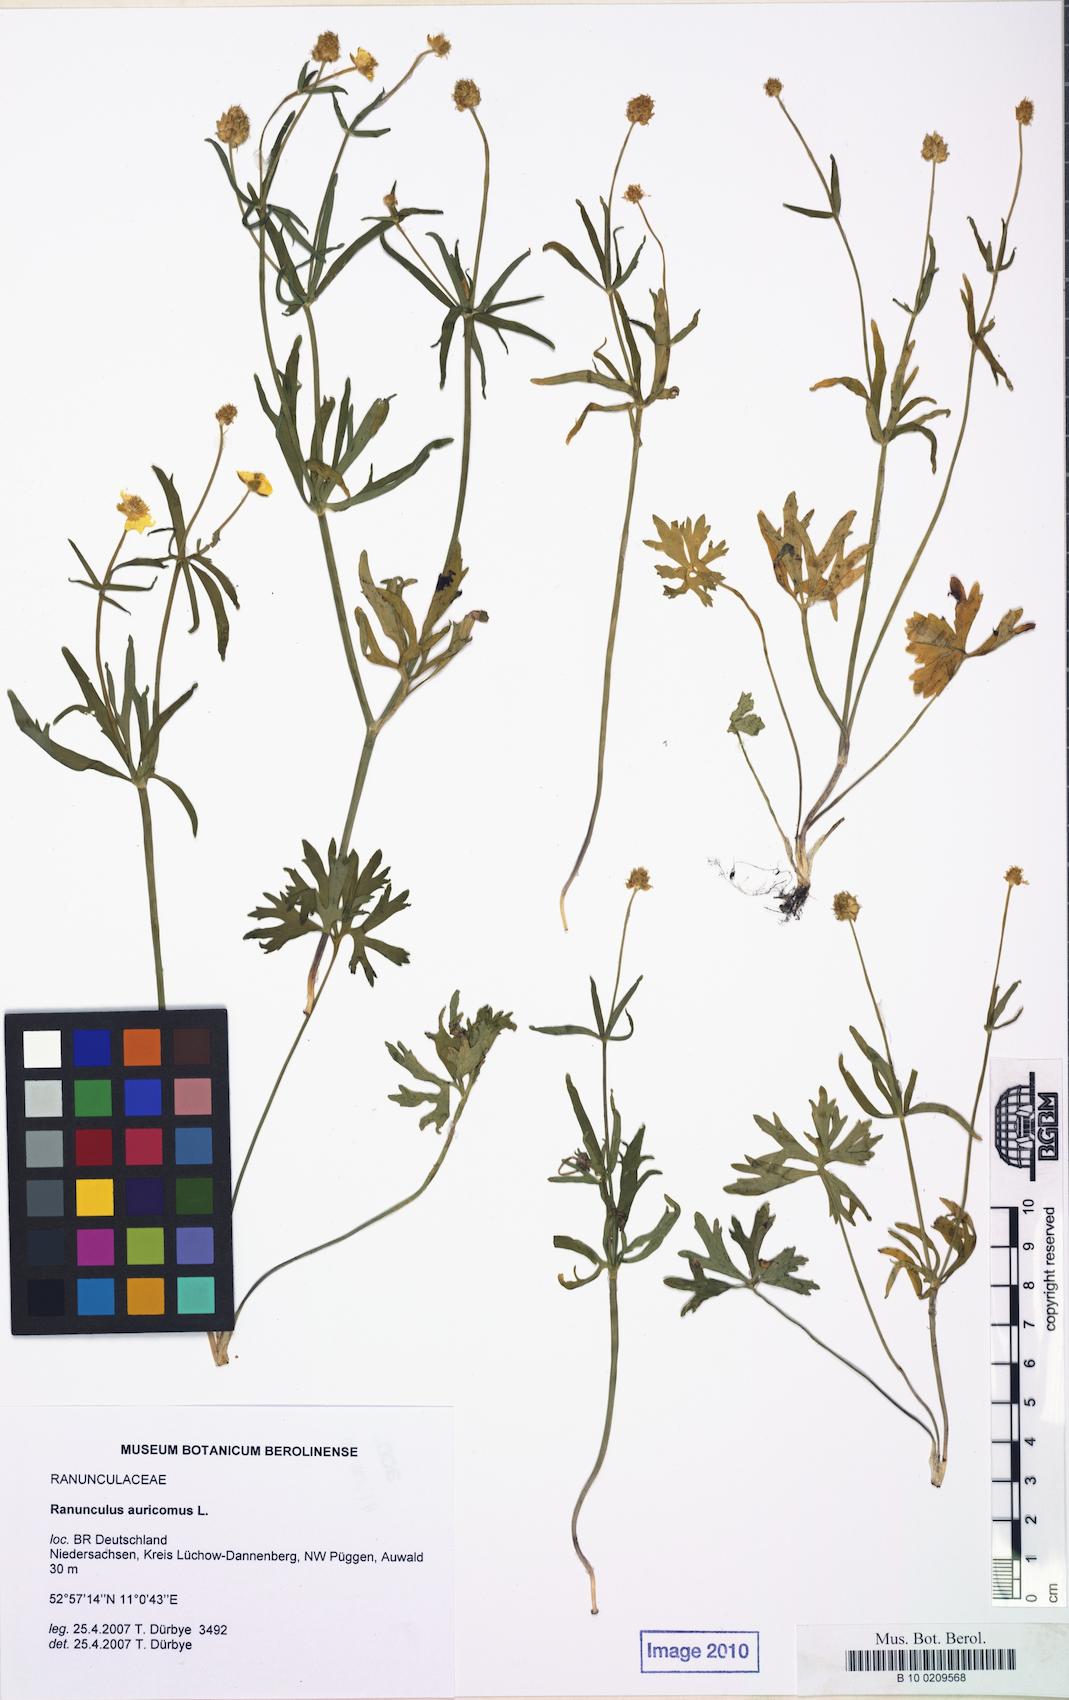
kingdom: Plantae
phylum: Tracheophyta
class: Magnoliopsida
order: Ranunculales
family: Ranunculaceae
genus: Ranunculus
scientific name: Ranunculus auricomus
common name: Goldilocks buttercup
